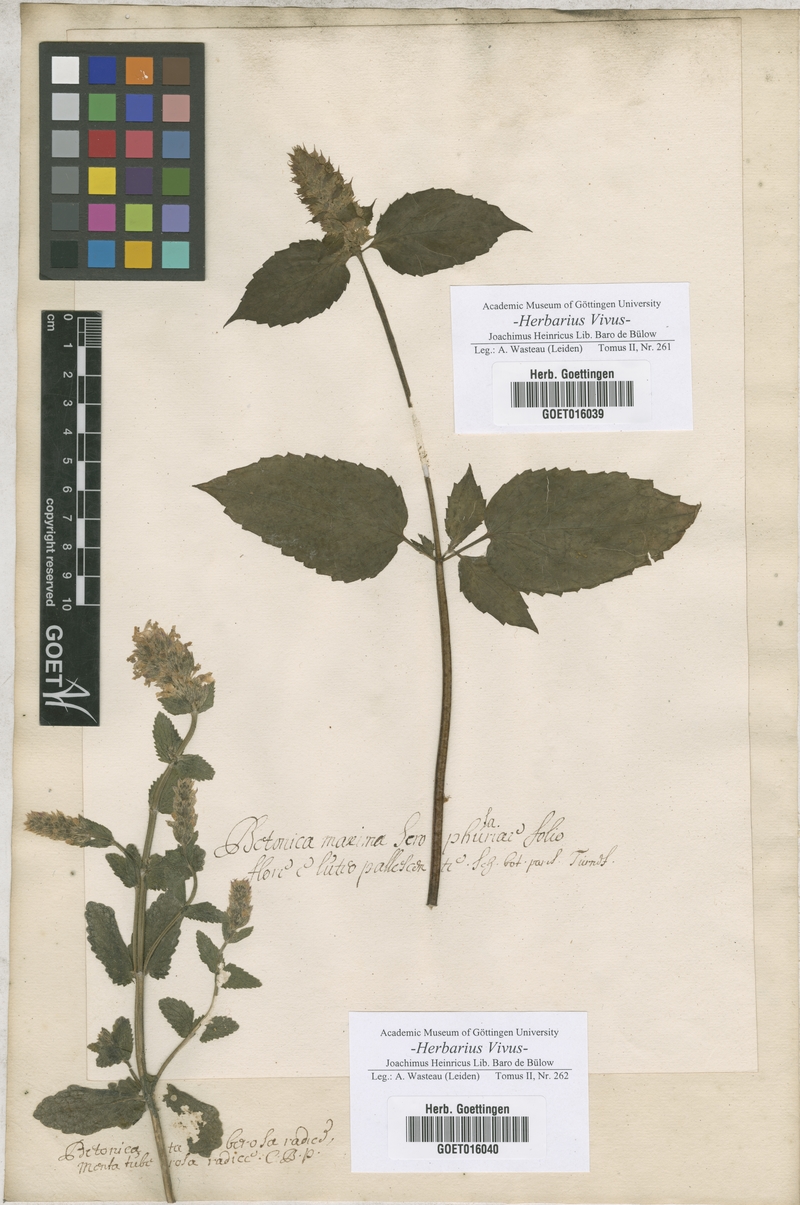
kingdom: Plantae
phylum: Tracheophyta
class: Magnoliopsida
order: Lamiales
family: Lamiaceae
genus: Betonica
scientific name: Betonica
